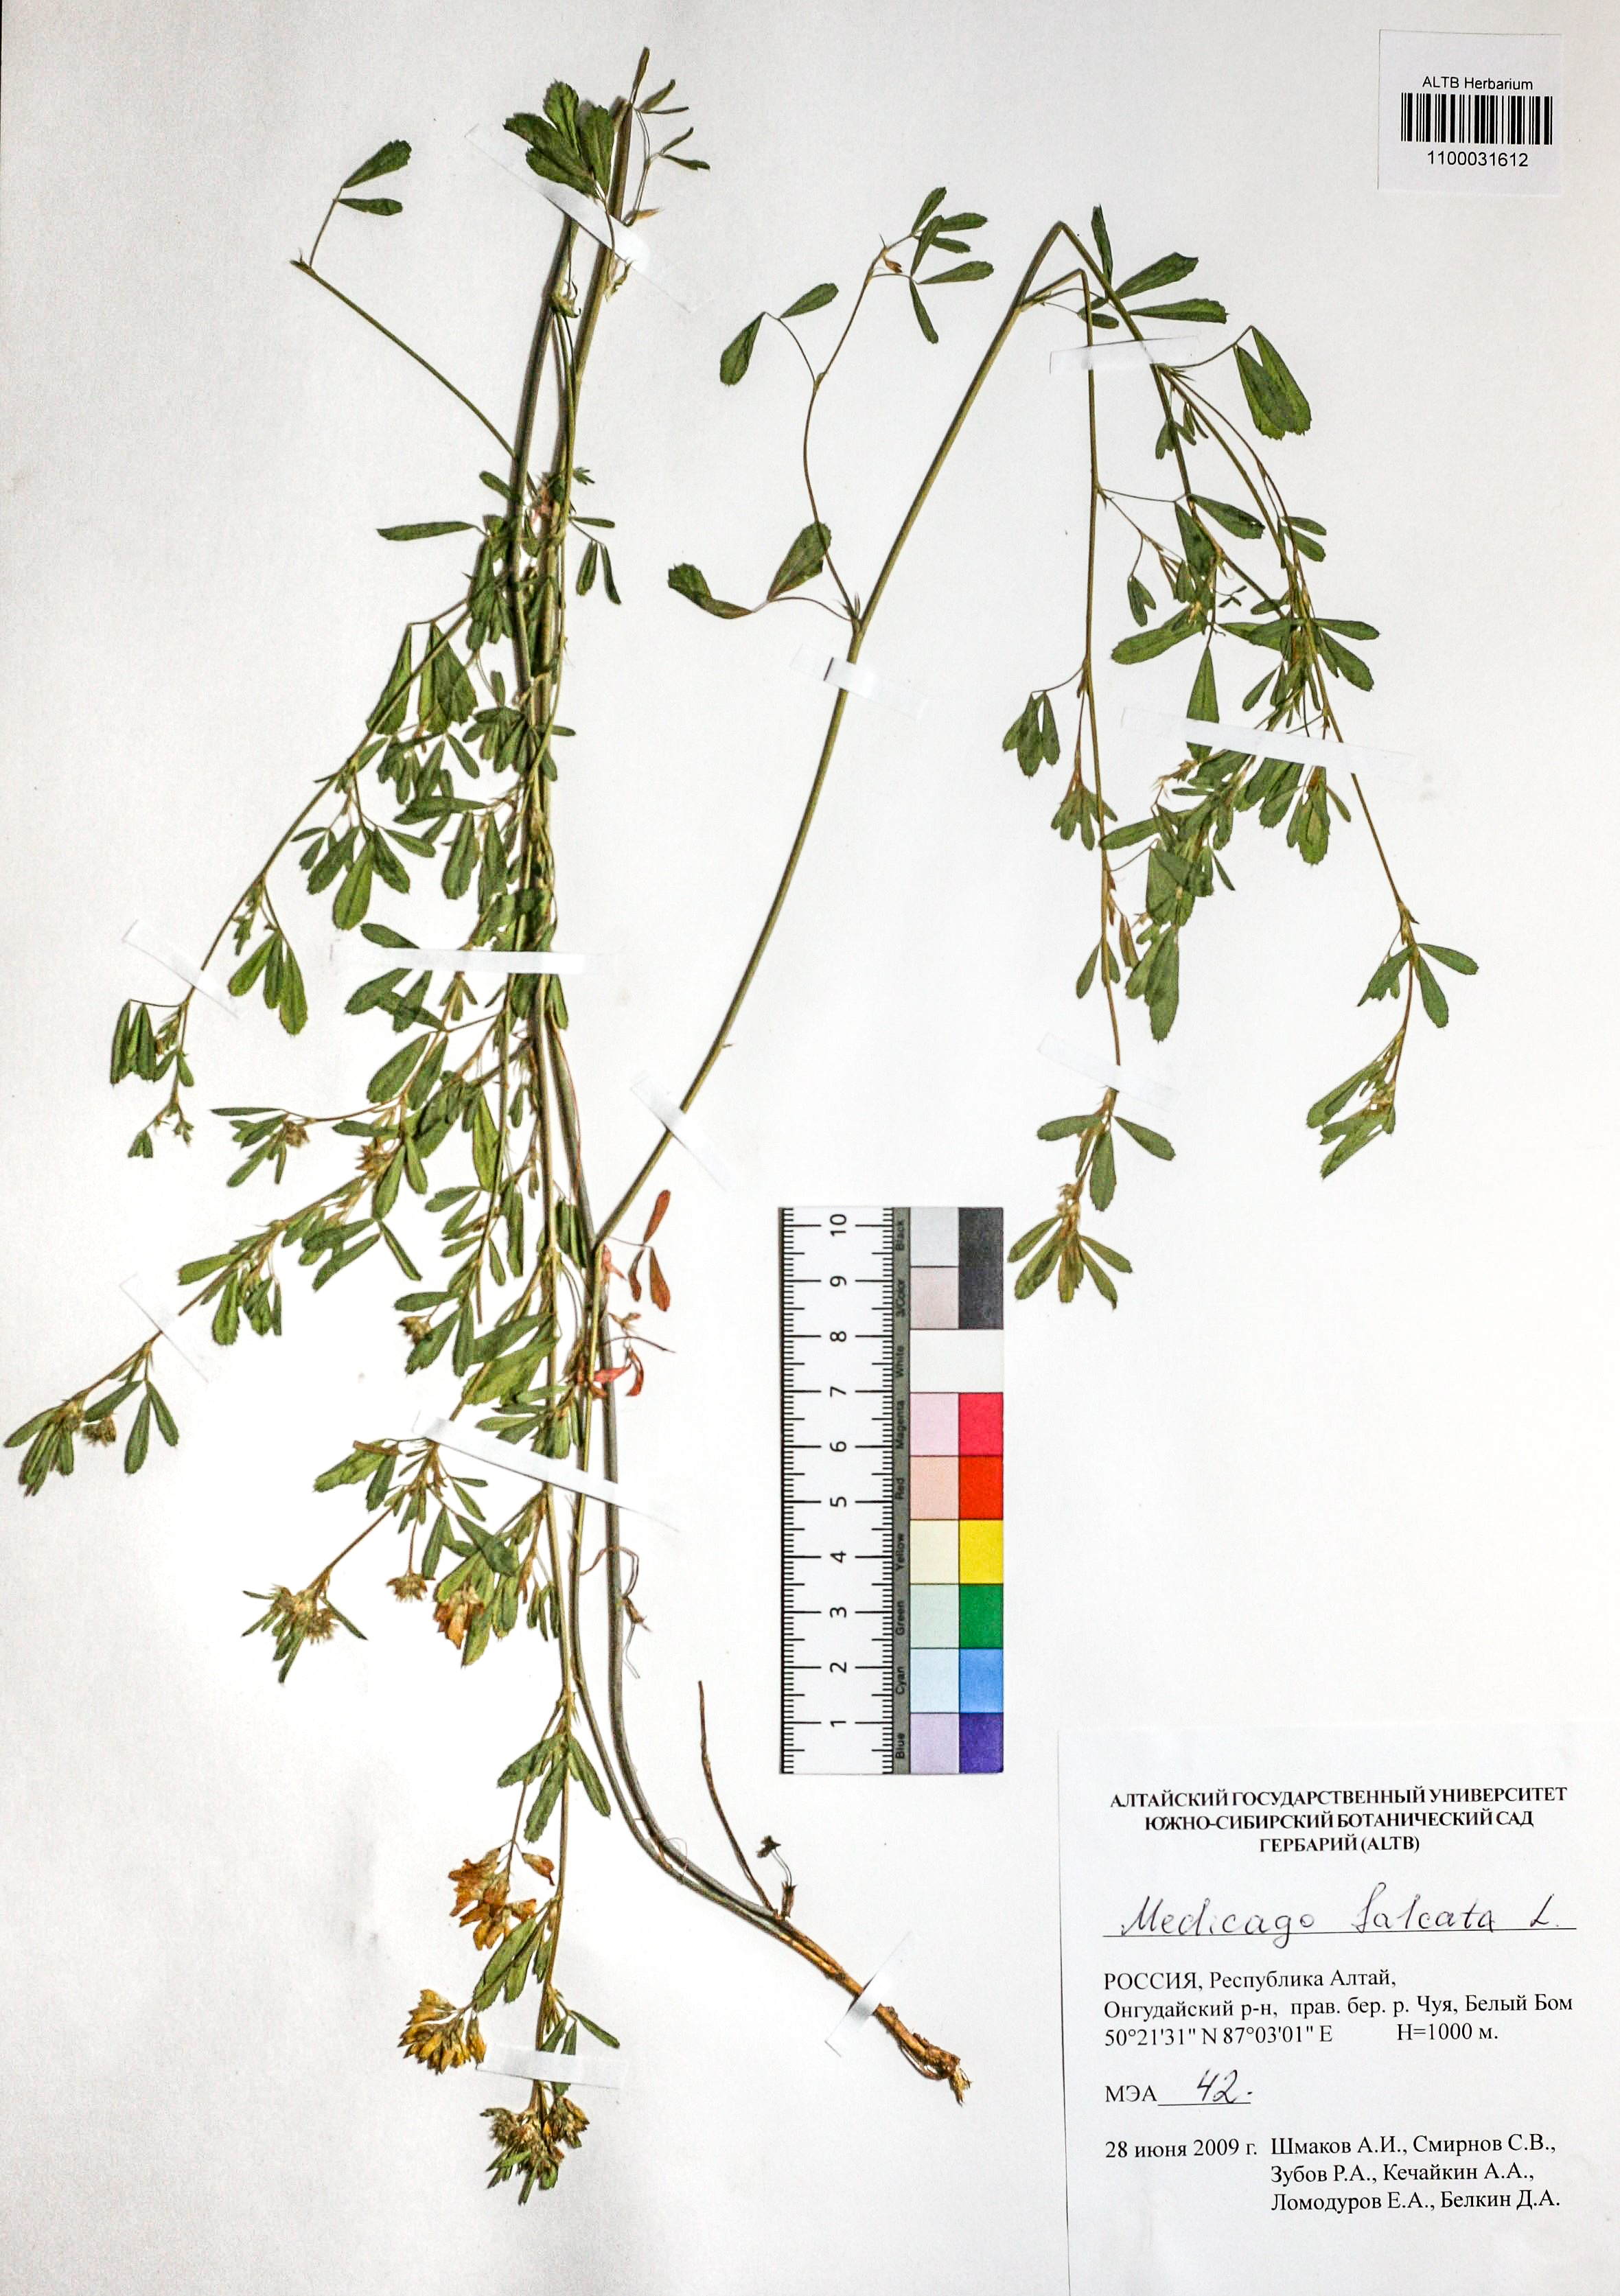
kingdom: Plantae
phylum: Tracheophyta
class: Magnoliopsida
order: Fabales
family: Fabaceae
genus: Medicago
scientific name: Medicago falcata
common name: Sickle medick
